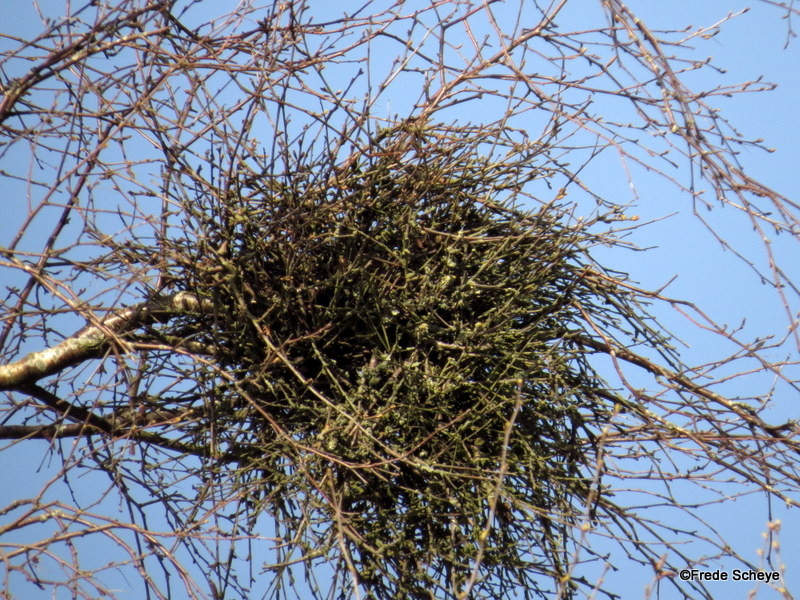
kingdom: Fungi
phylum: Ascomycota
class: Taphrinomycetes
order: Taphrinales
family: Taphrinaceae
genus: Taphrina
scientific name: Taphrina betulina
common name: hekse-sækdug
